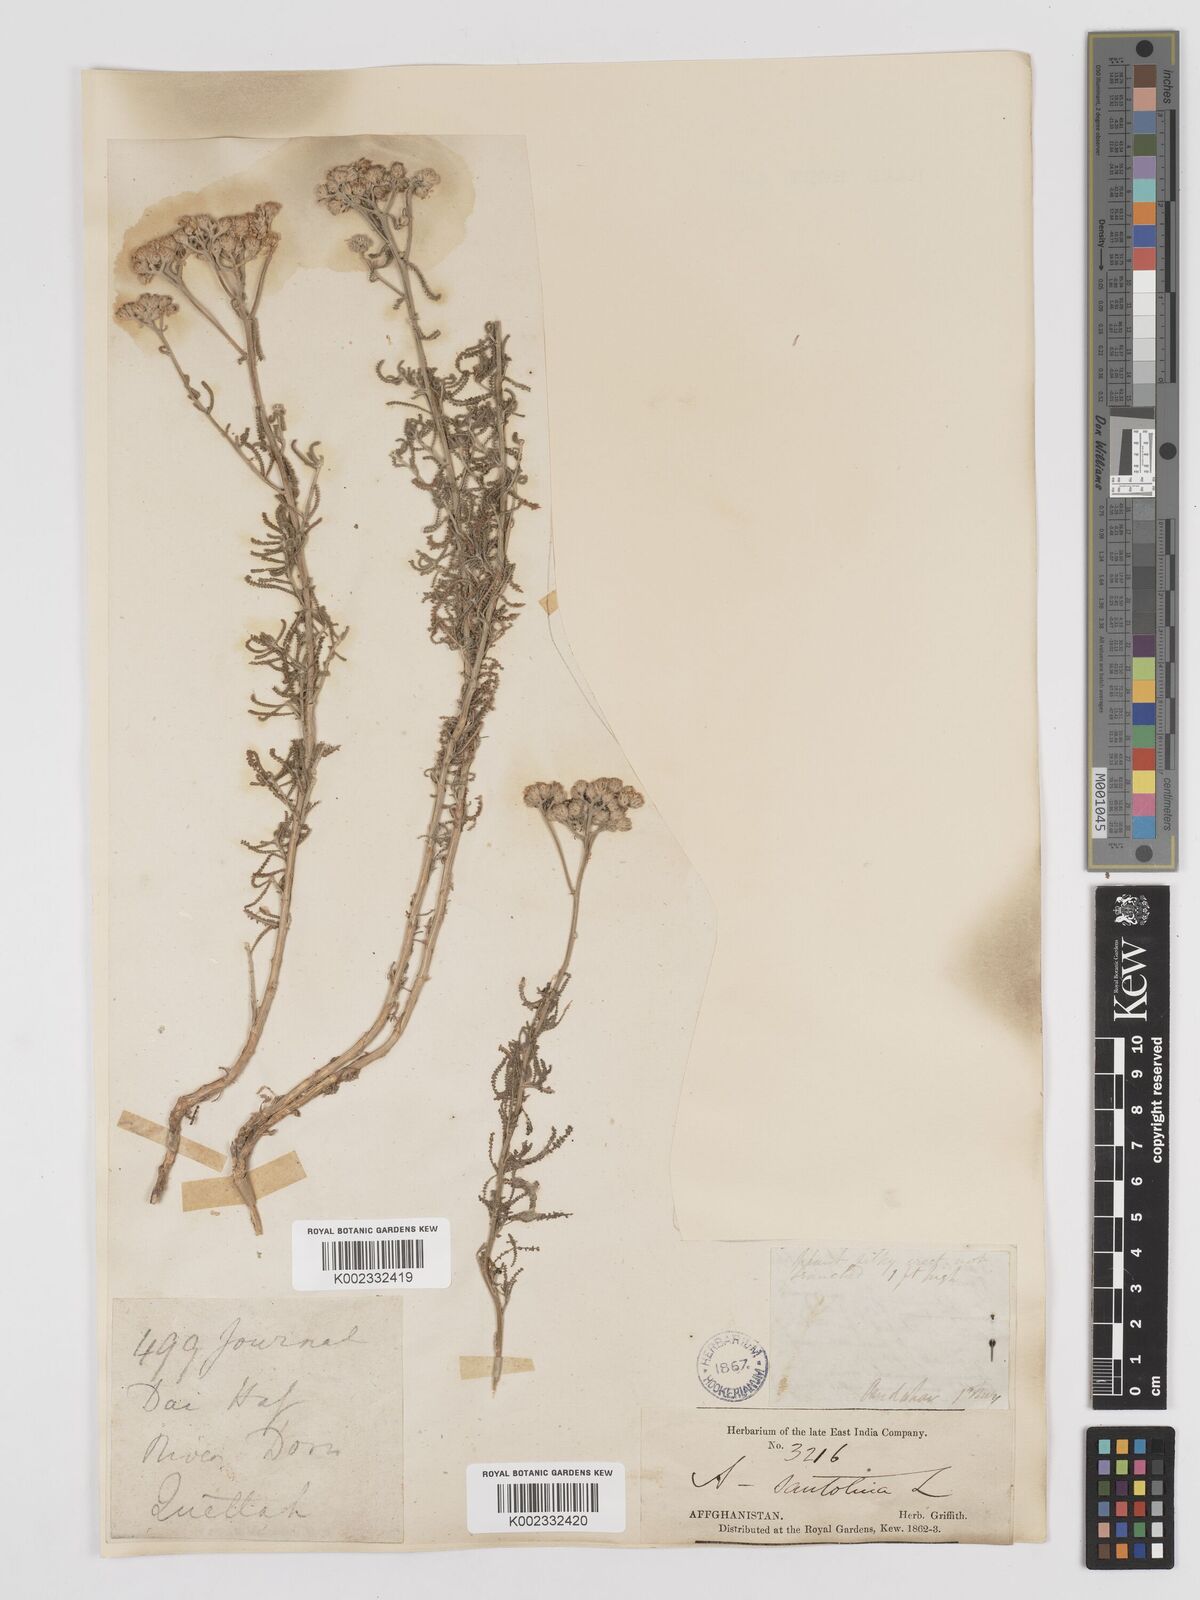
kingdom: Plantae
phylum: Tracheophyta
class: Magnoliopsida
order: Asterales
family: Asteraceae
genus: Achillea
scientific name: Achillea tenuifolia
